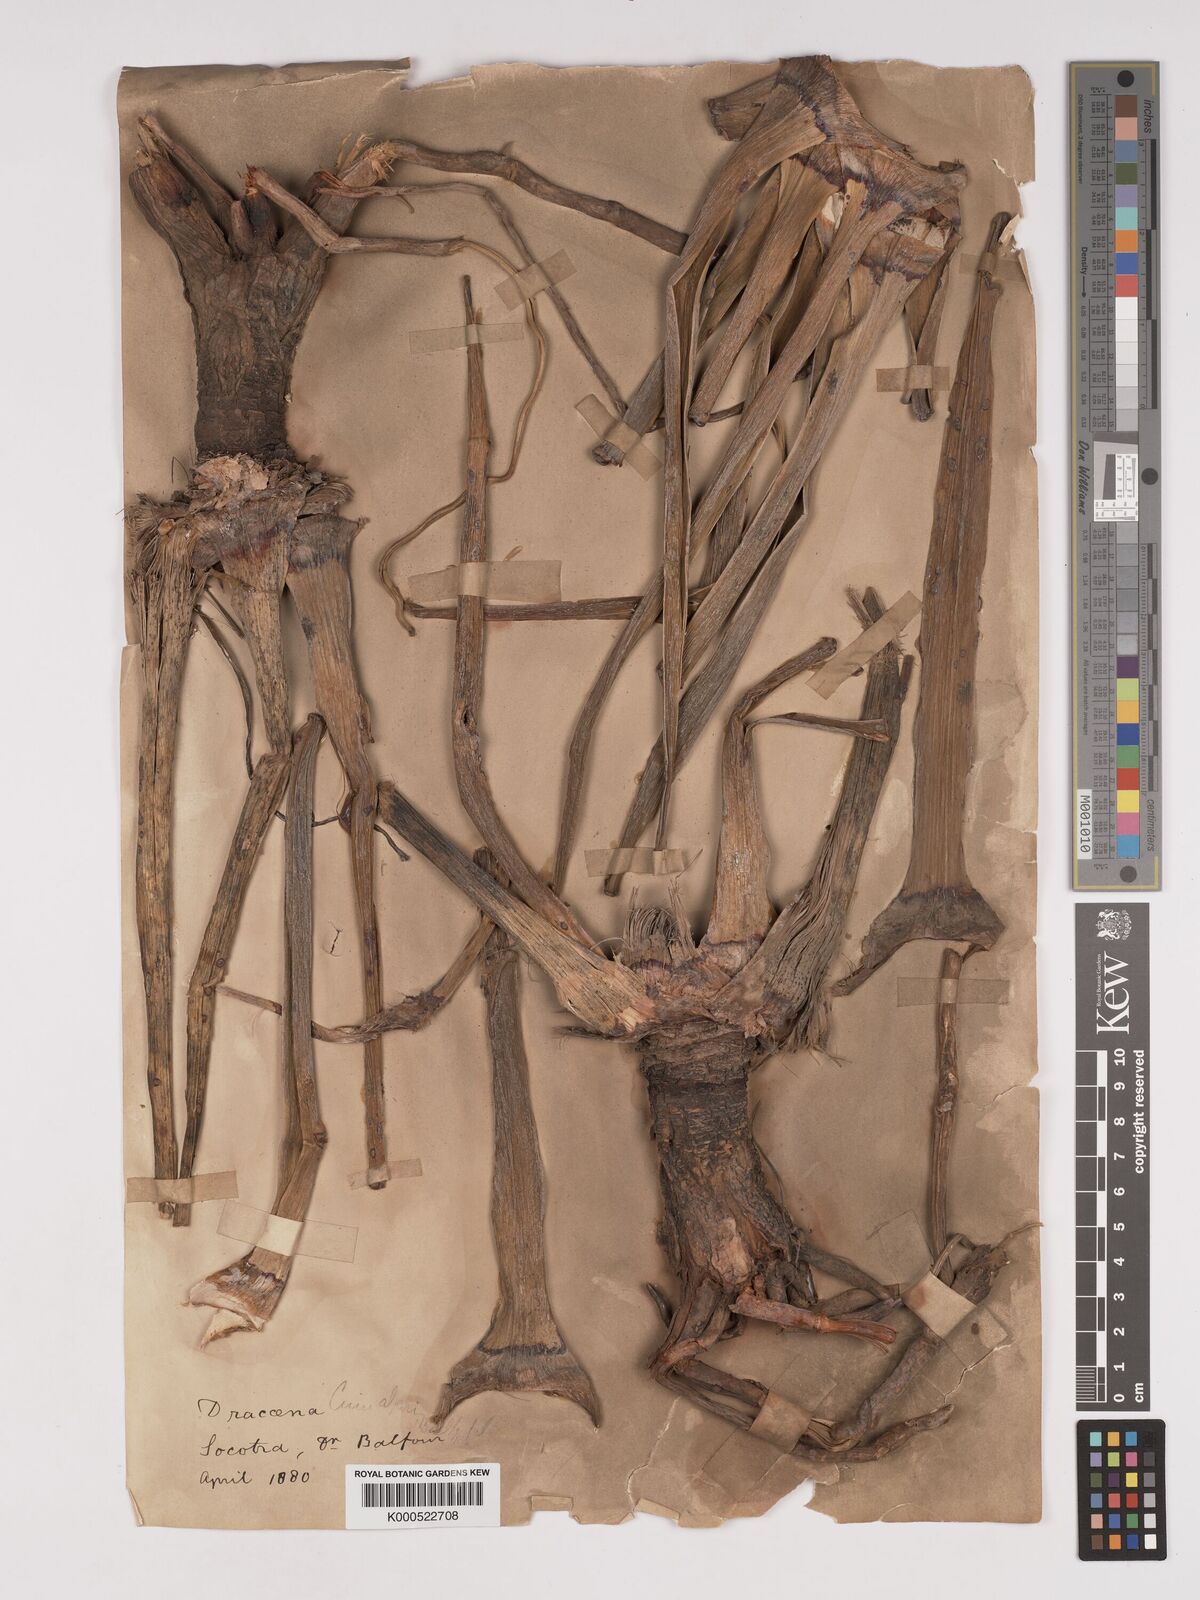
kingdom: Plantae
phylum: Tracheophyta
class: Liliopsida
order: Asparagales
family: Asparagaceae
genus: Dracaena
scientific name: Dracaena cinnabari
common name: Dragon's blood tree
